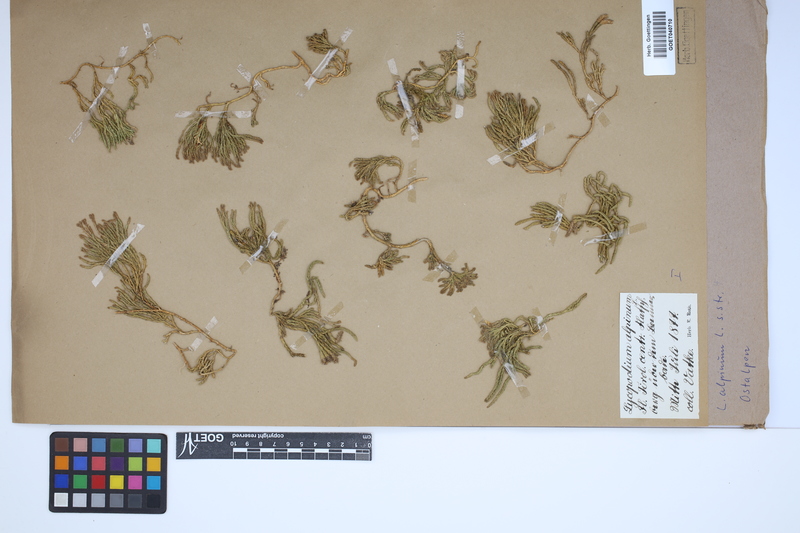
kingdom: Plantae
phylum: Tracheophyta
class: Lycopodiopsida
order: Lycopodiales
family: Lycopodiaceae
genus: Diphasiastrum
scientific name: Diphasiastrum alpinum
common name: Alpine clubmoss
